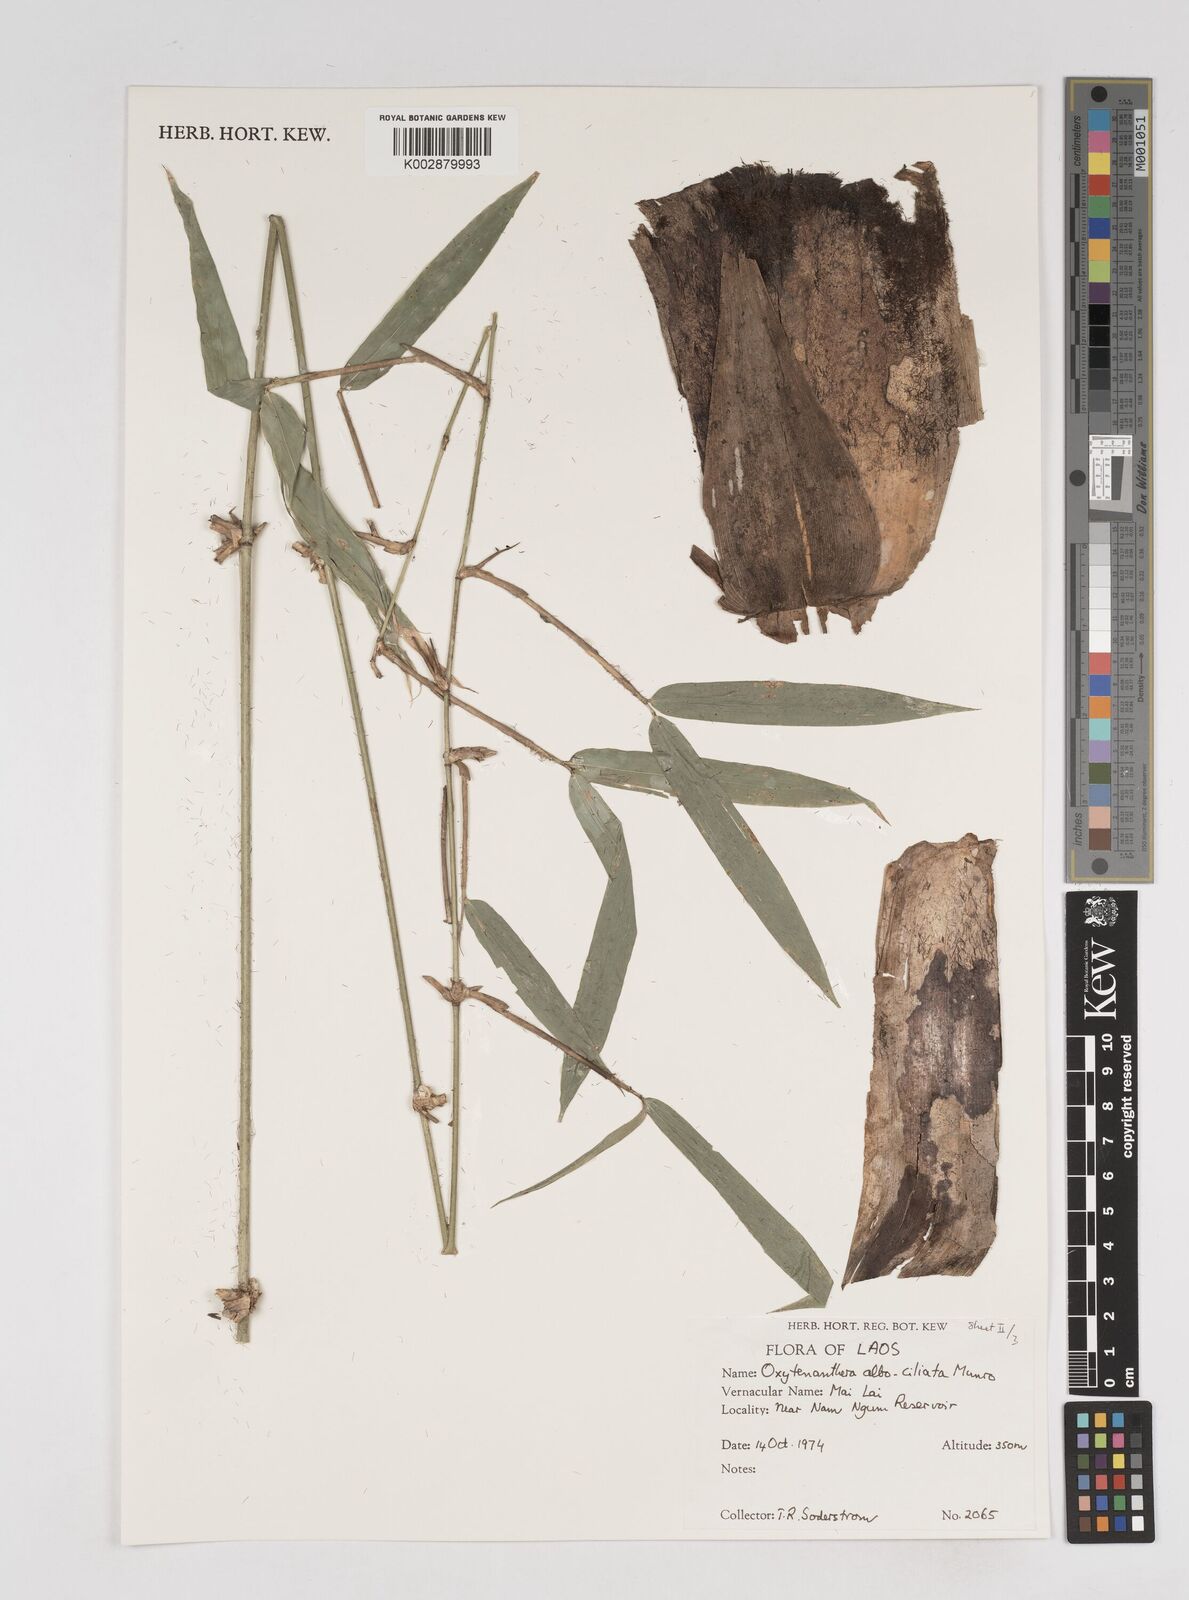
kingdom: Plantae
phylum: Tracheophyta
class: Liliopsida
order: Poales
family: Poaceae
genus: Gigantochloa
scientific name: Gigantochloa albociliata
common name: White-fringe gigantochloa
